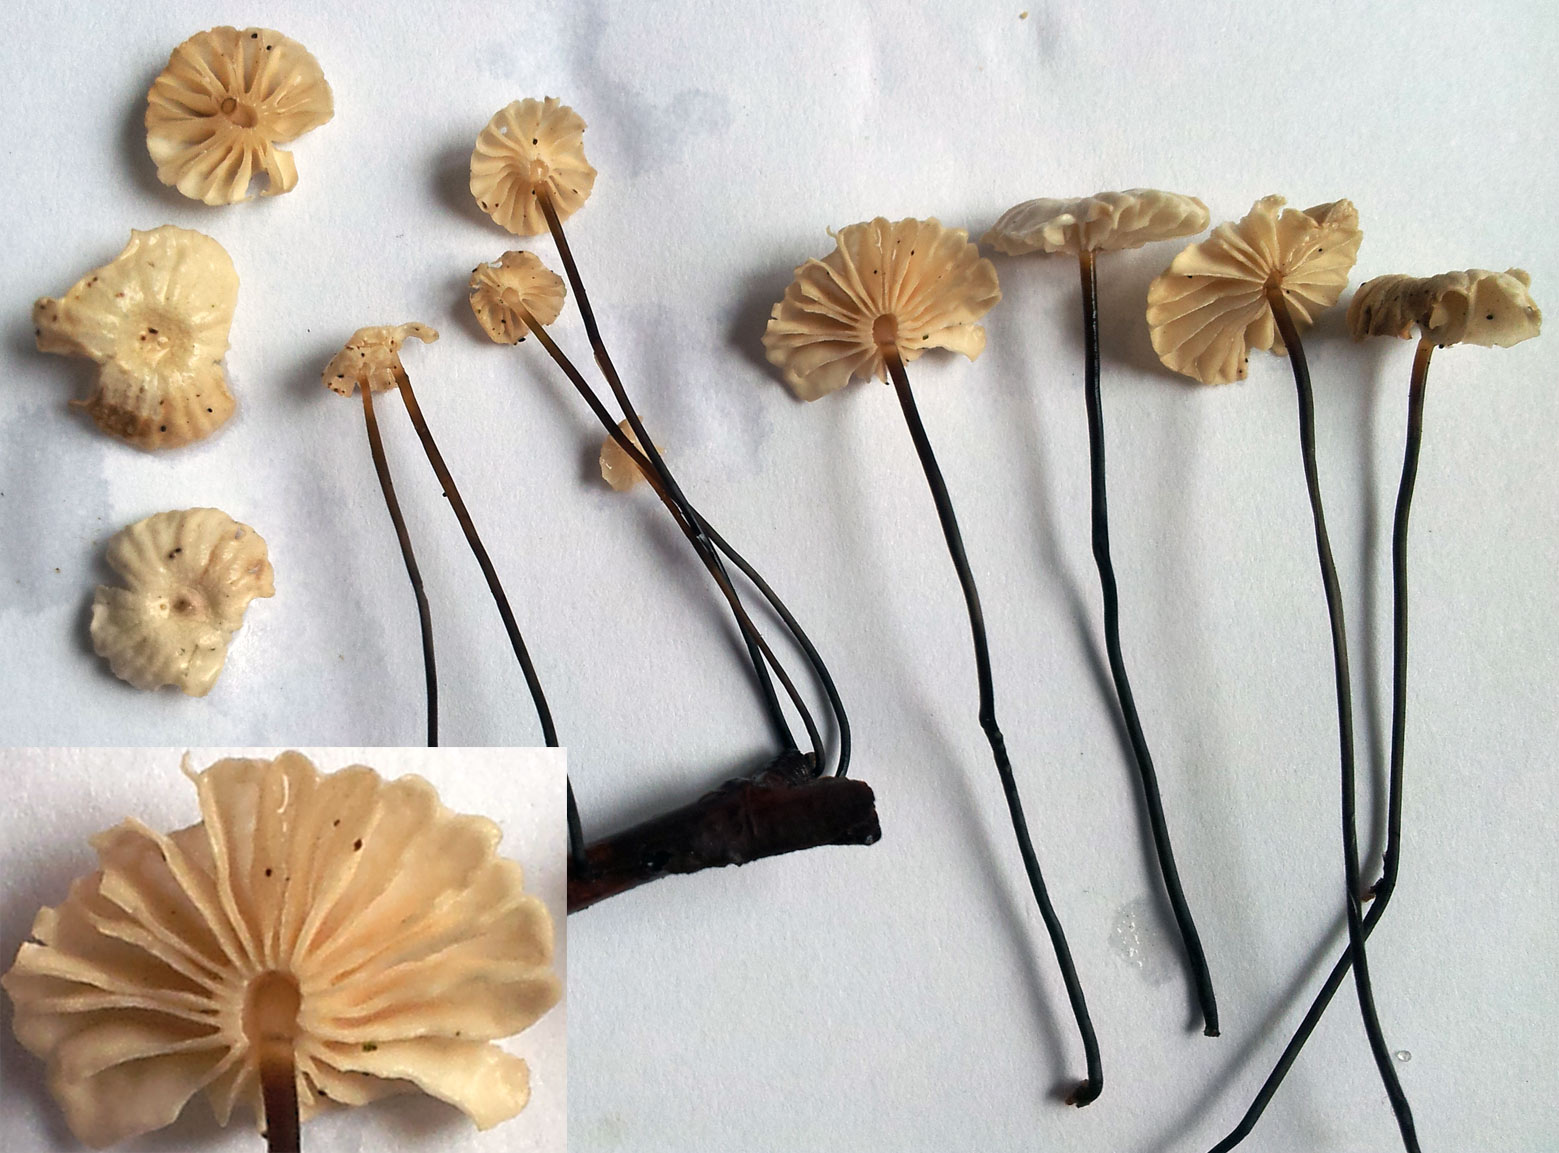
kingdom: Fungi
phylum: Basidiomycota
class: Agaricomycetes
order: Agaricales
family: Marasmiaceae
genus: Marasmius
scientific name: Marasmius rotula
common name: hjul-bruskhat
